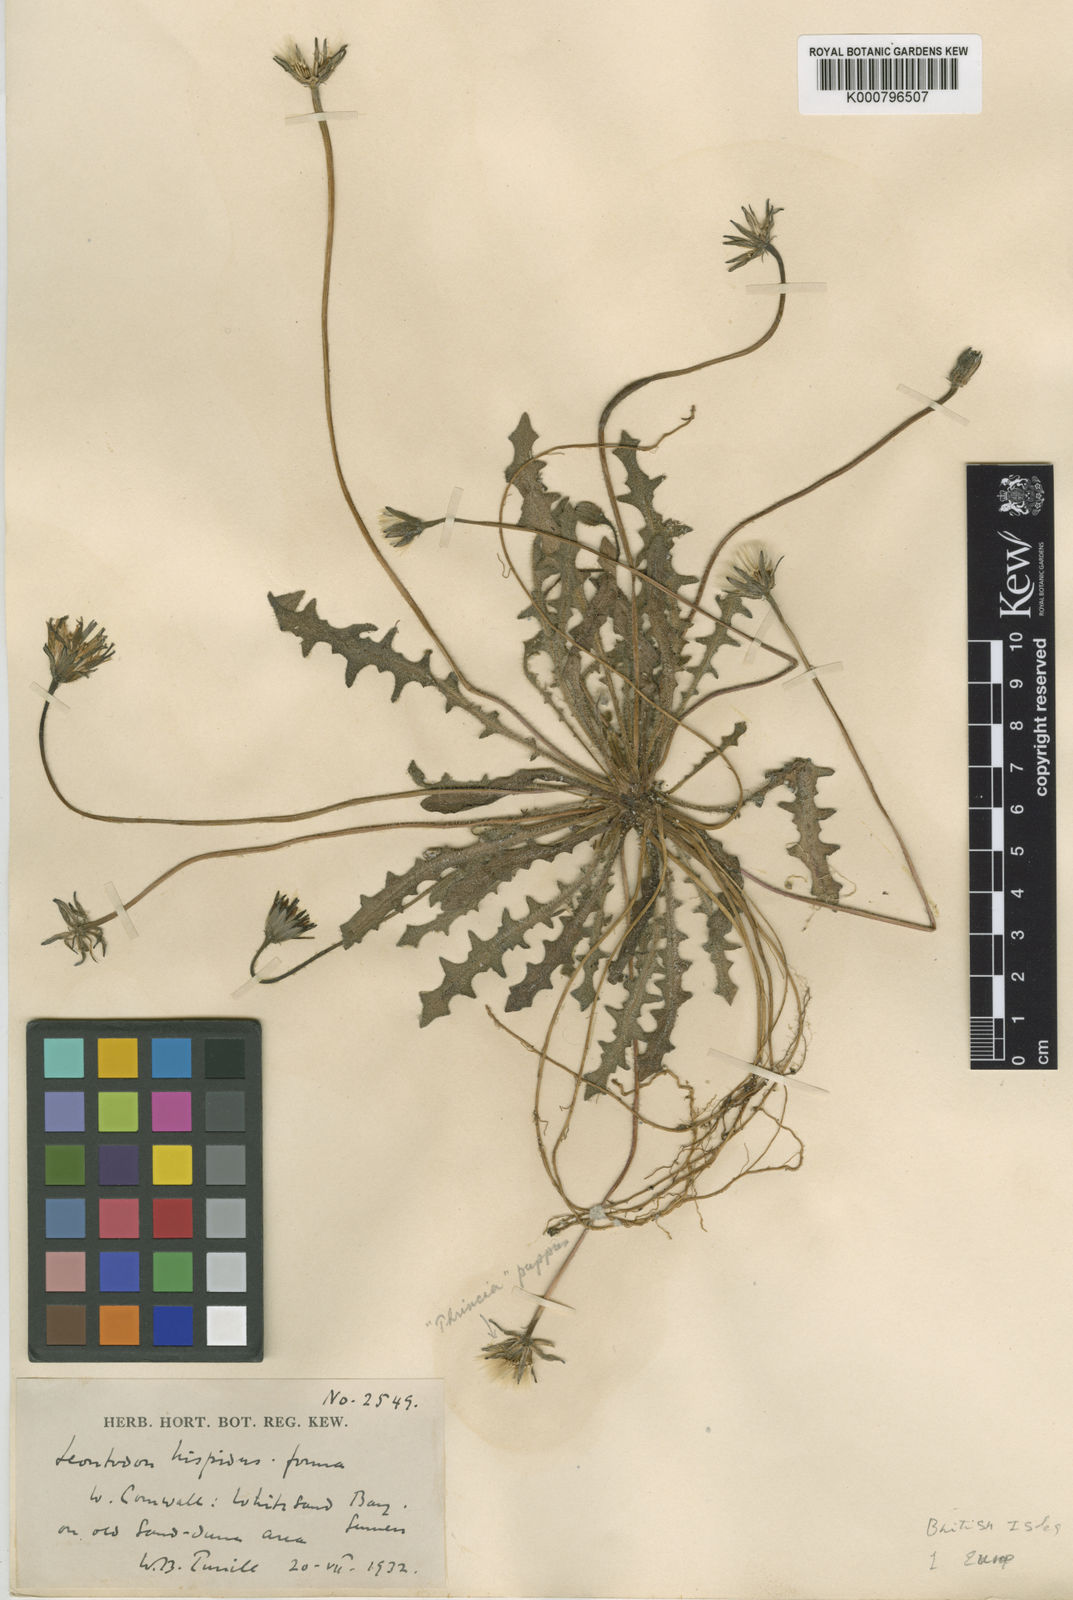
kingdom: Plantae
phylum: Tracheophyta
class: Magnoliopsida
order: Asterales
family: Asteraceae
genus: Leontodon
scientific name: Leontodon
